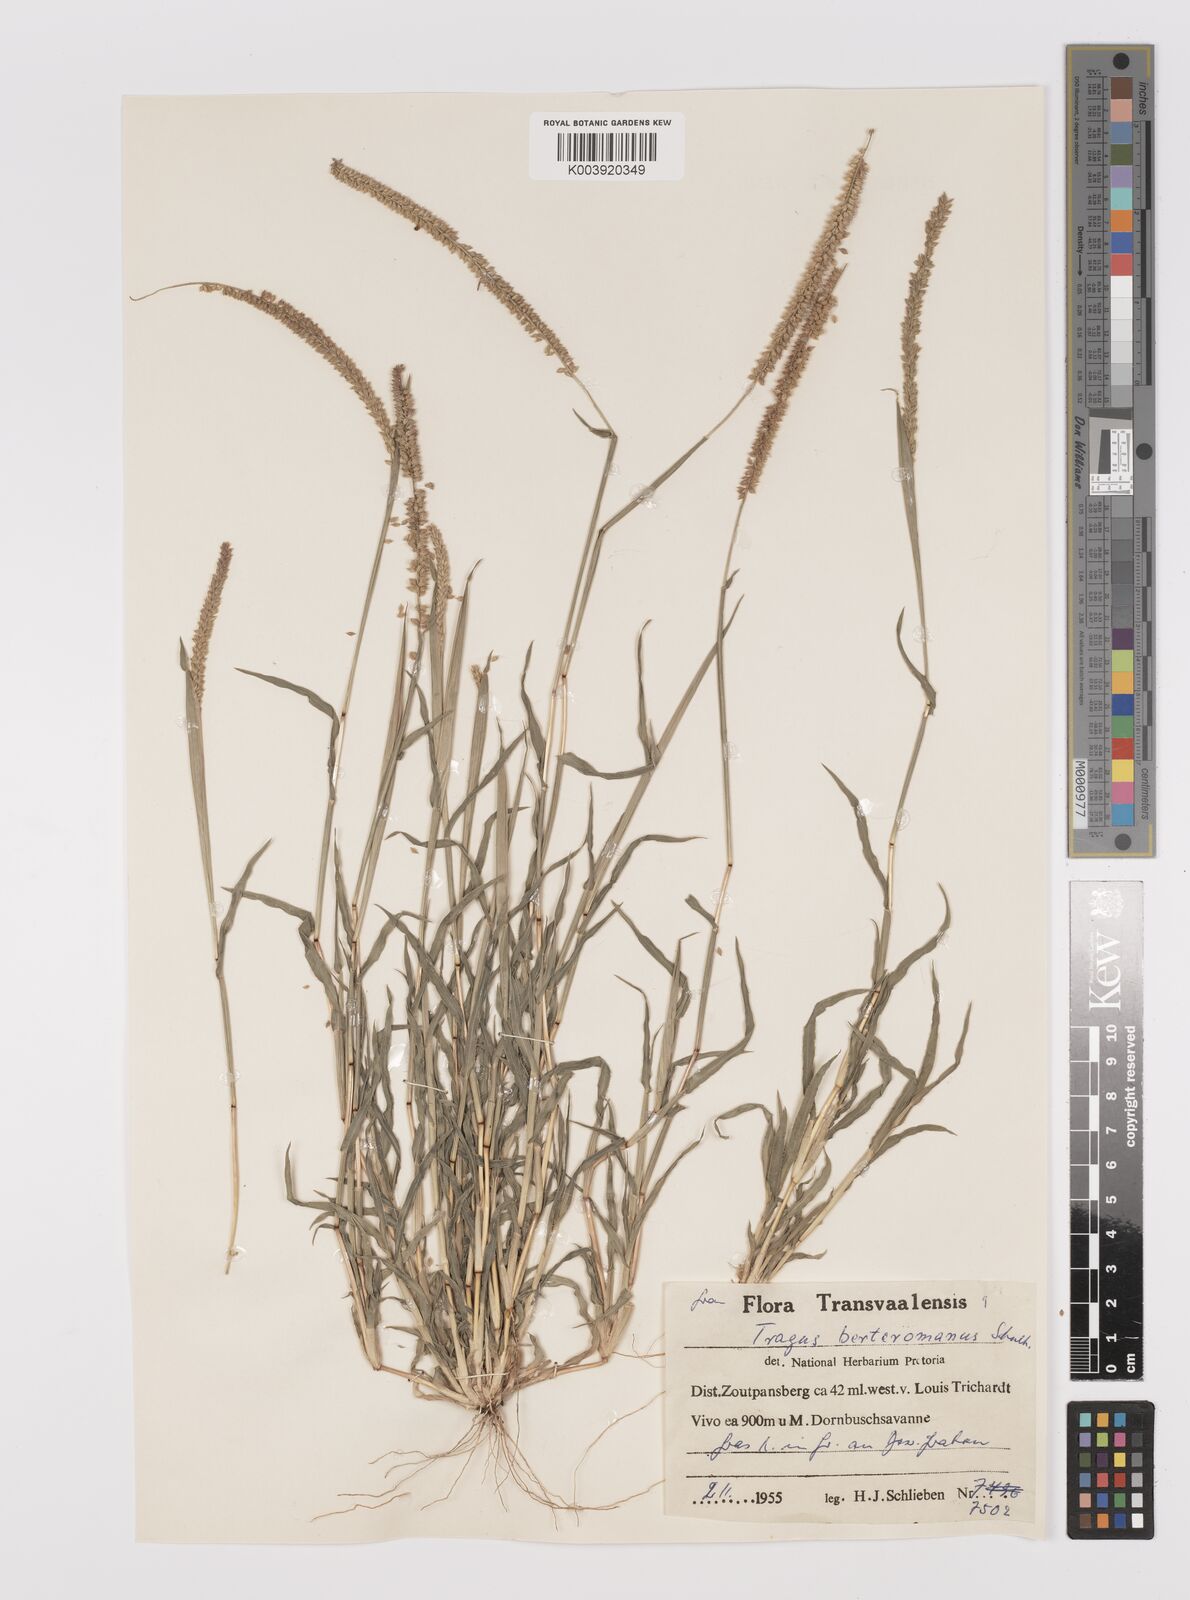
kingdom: Plantae
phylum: Tracheophyta
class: Liliopsida
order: Poales
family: Poaceae
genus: Tragus
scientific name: Tragus berteronianus
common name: African bur-grass
